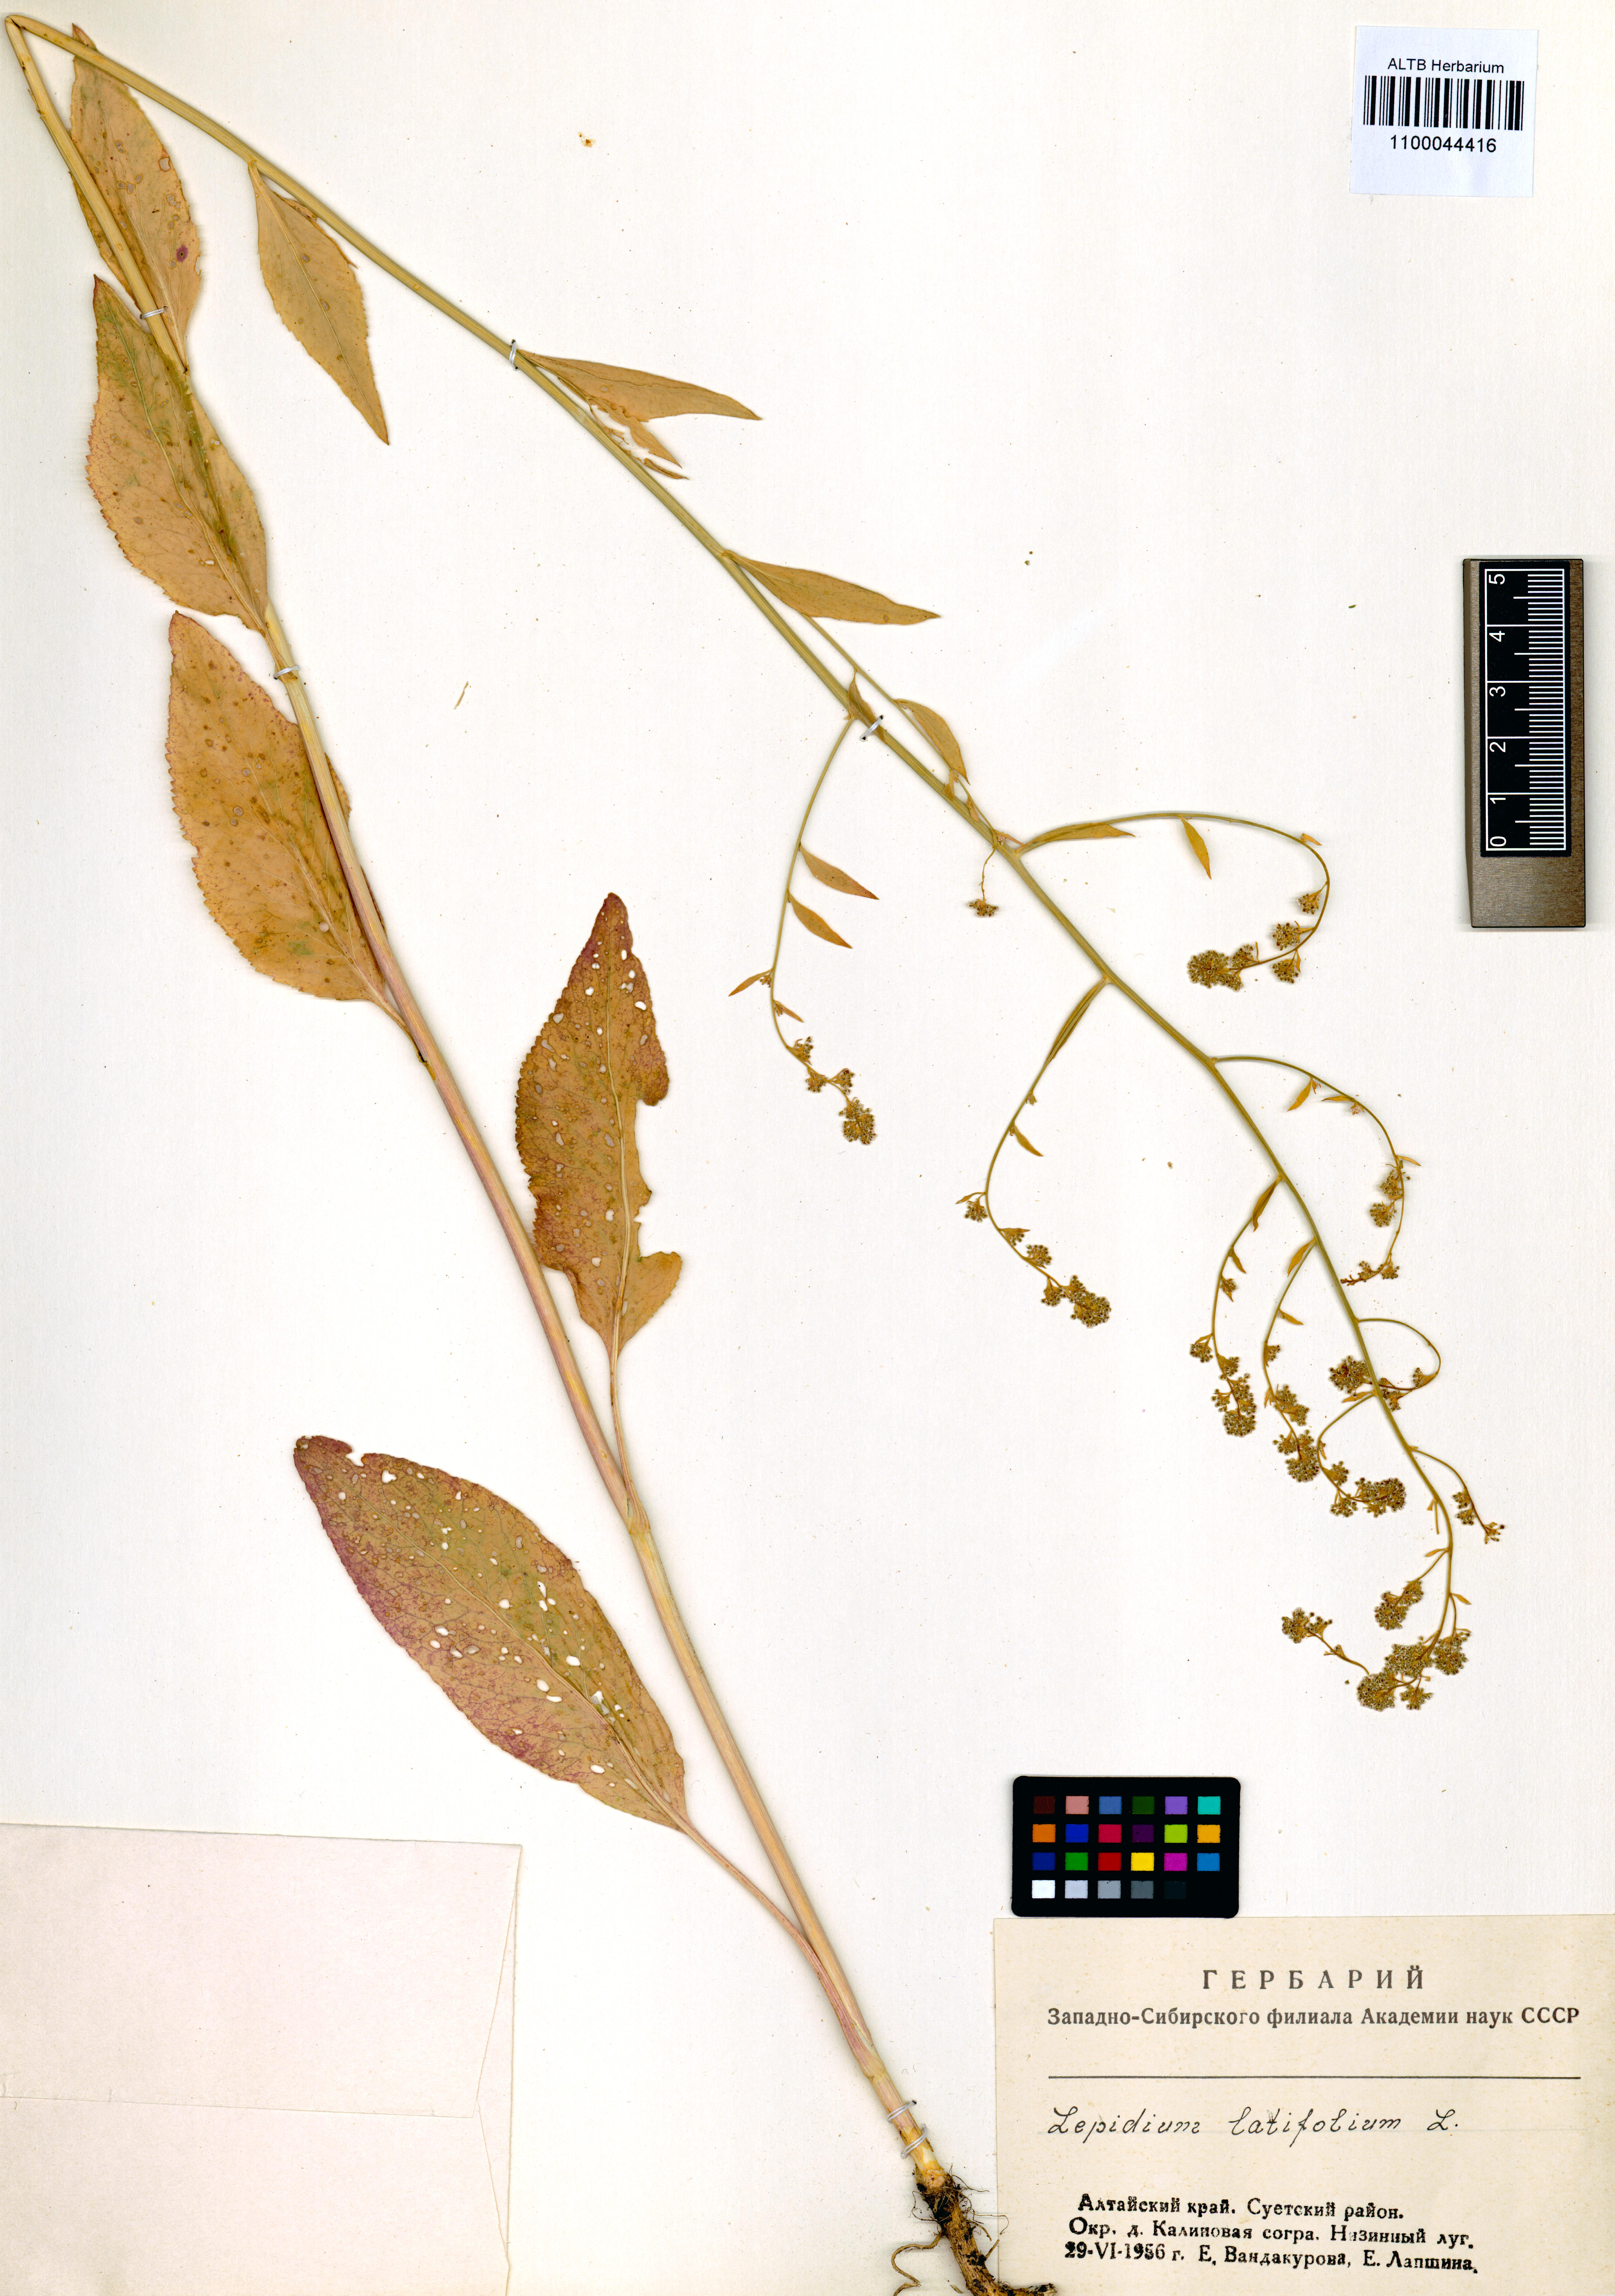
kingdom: Plantae
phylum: Tracheophyta
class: Magnoliopsida
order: Brassicales
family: Brassicaceae
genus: Lepidium
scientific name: Lepidium latifolium
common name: Dittander
